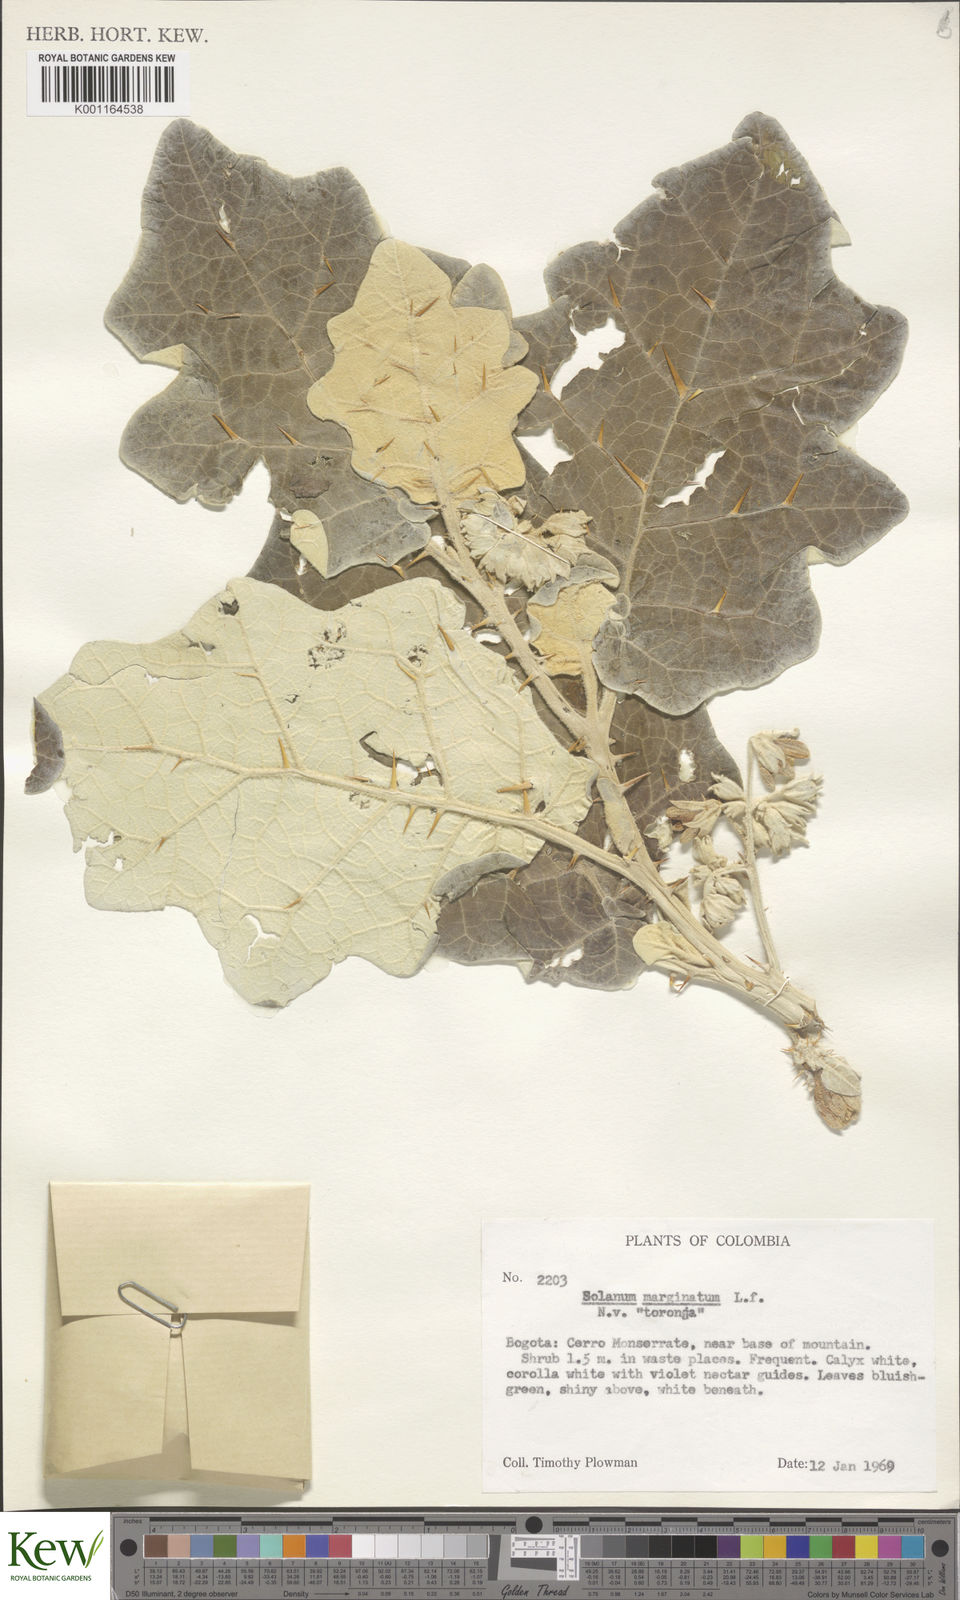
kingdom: Plantae
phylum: Tracheophyta
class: Magnoliopsida
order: Solanales
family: Solanaceae
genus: Solanum
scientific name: Solanum marginatum
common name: Purple african nightshade
